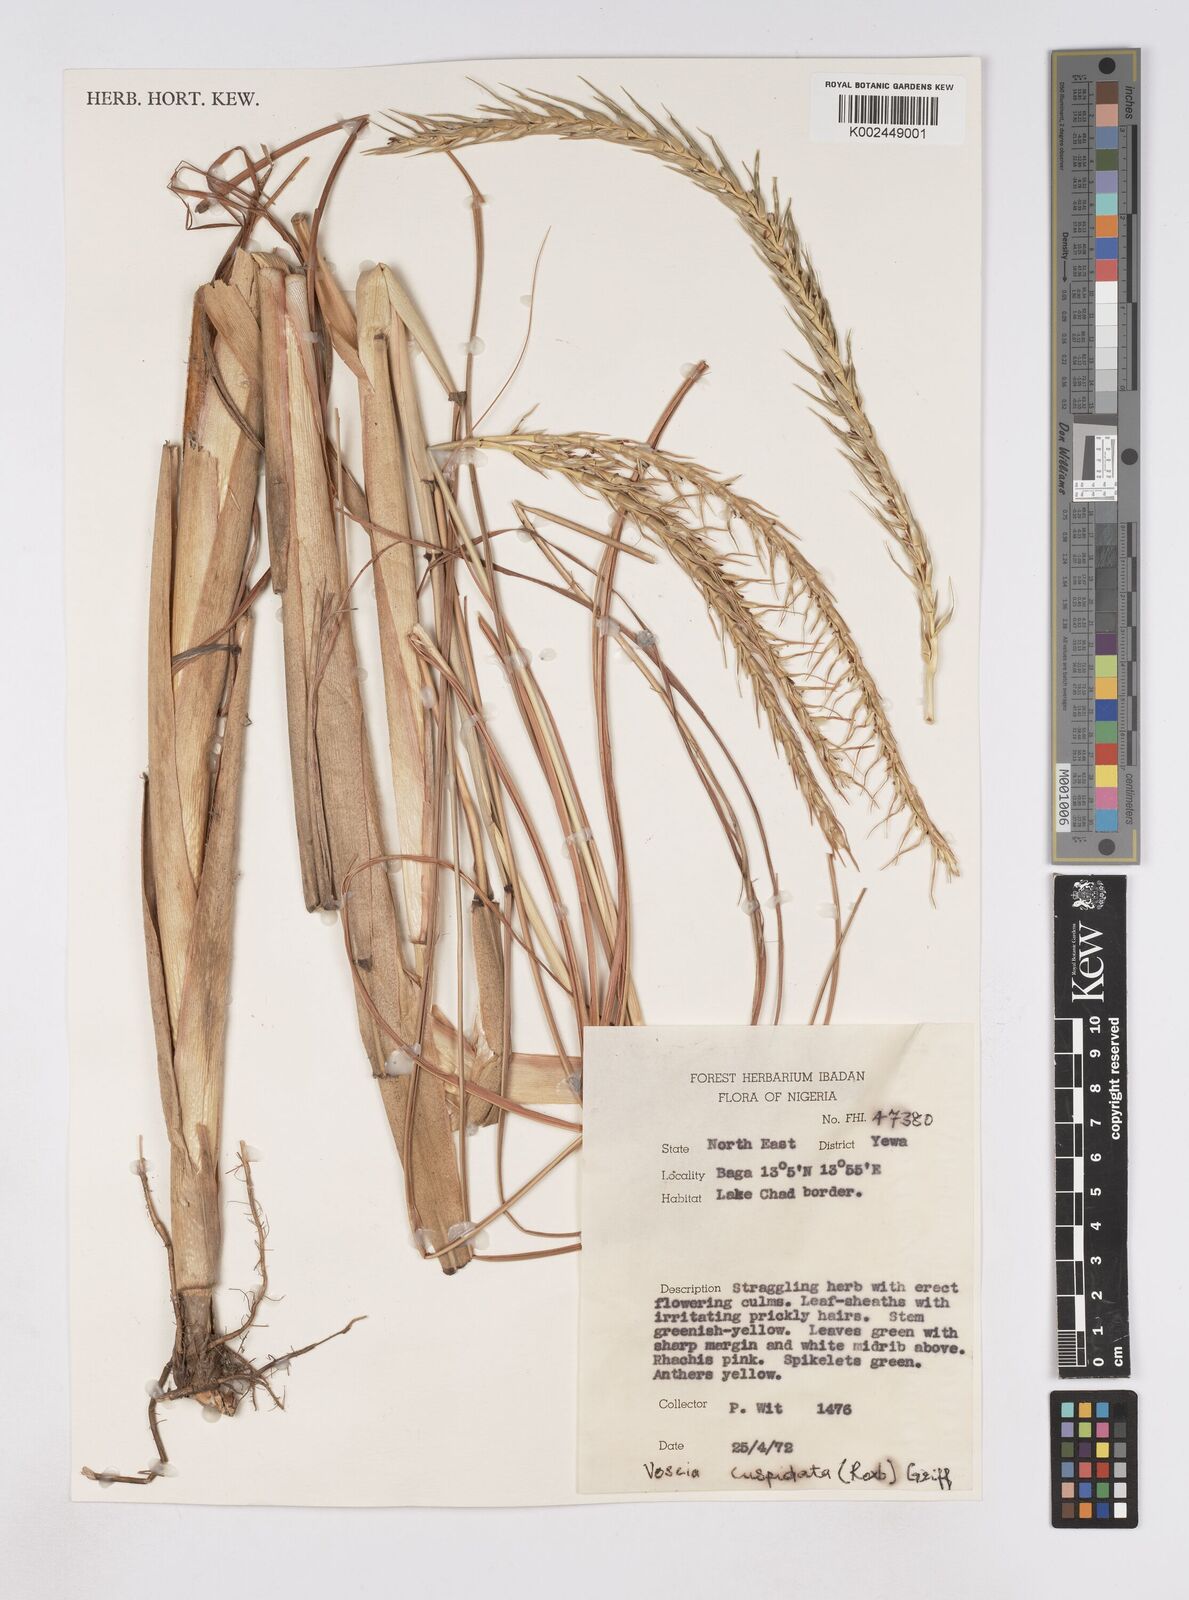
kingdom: Plantae
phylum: Tracheophyta
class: Liliopsida
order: Poales
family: Poaceae
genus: Vossia
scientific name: Vossia cuspidata
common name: Hippo grass
